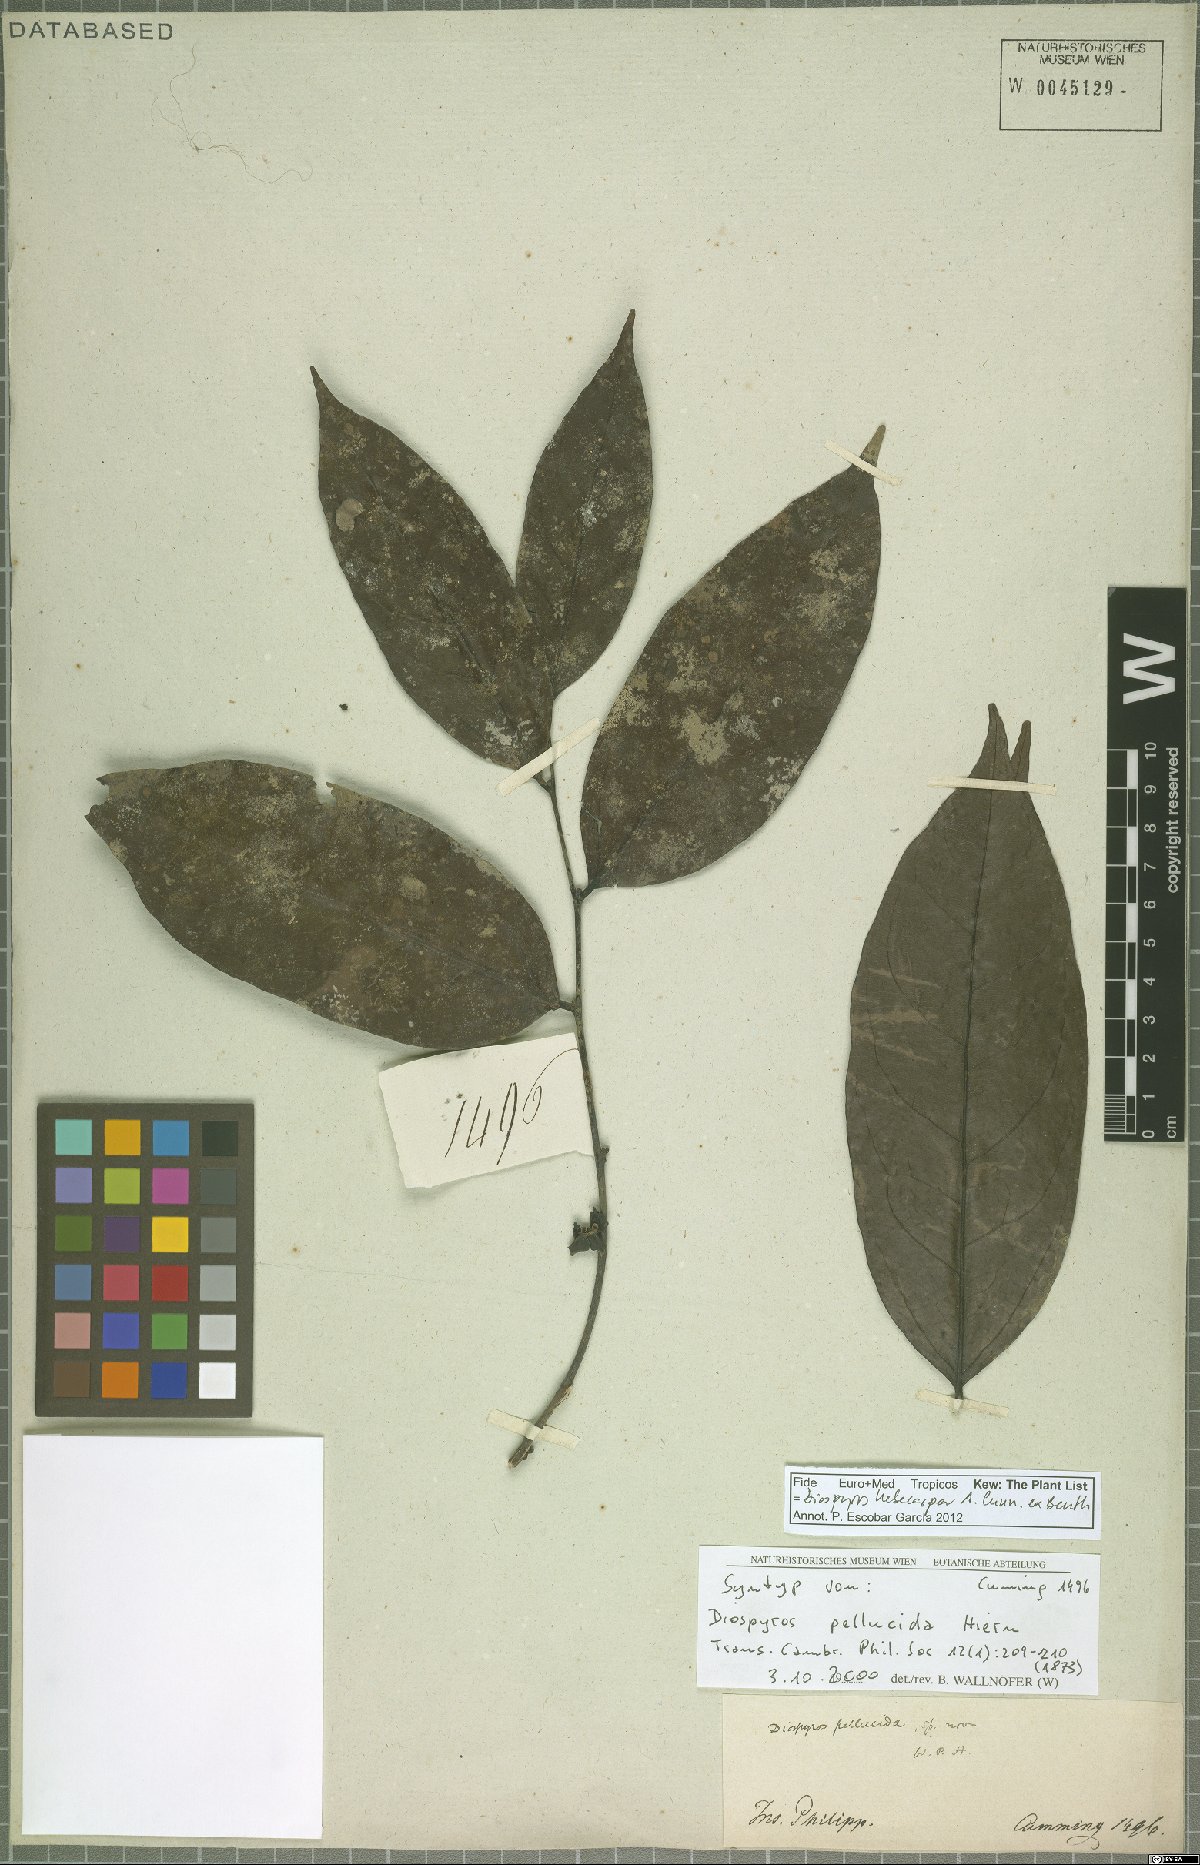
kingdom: Plantae
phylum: Tracheophyta
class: Magnoliopsida
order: Ericales
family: Ebenaceae
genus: Diospyros
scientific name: Diospyros hebecarpa
